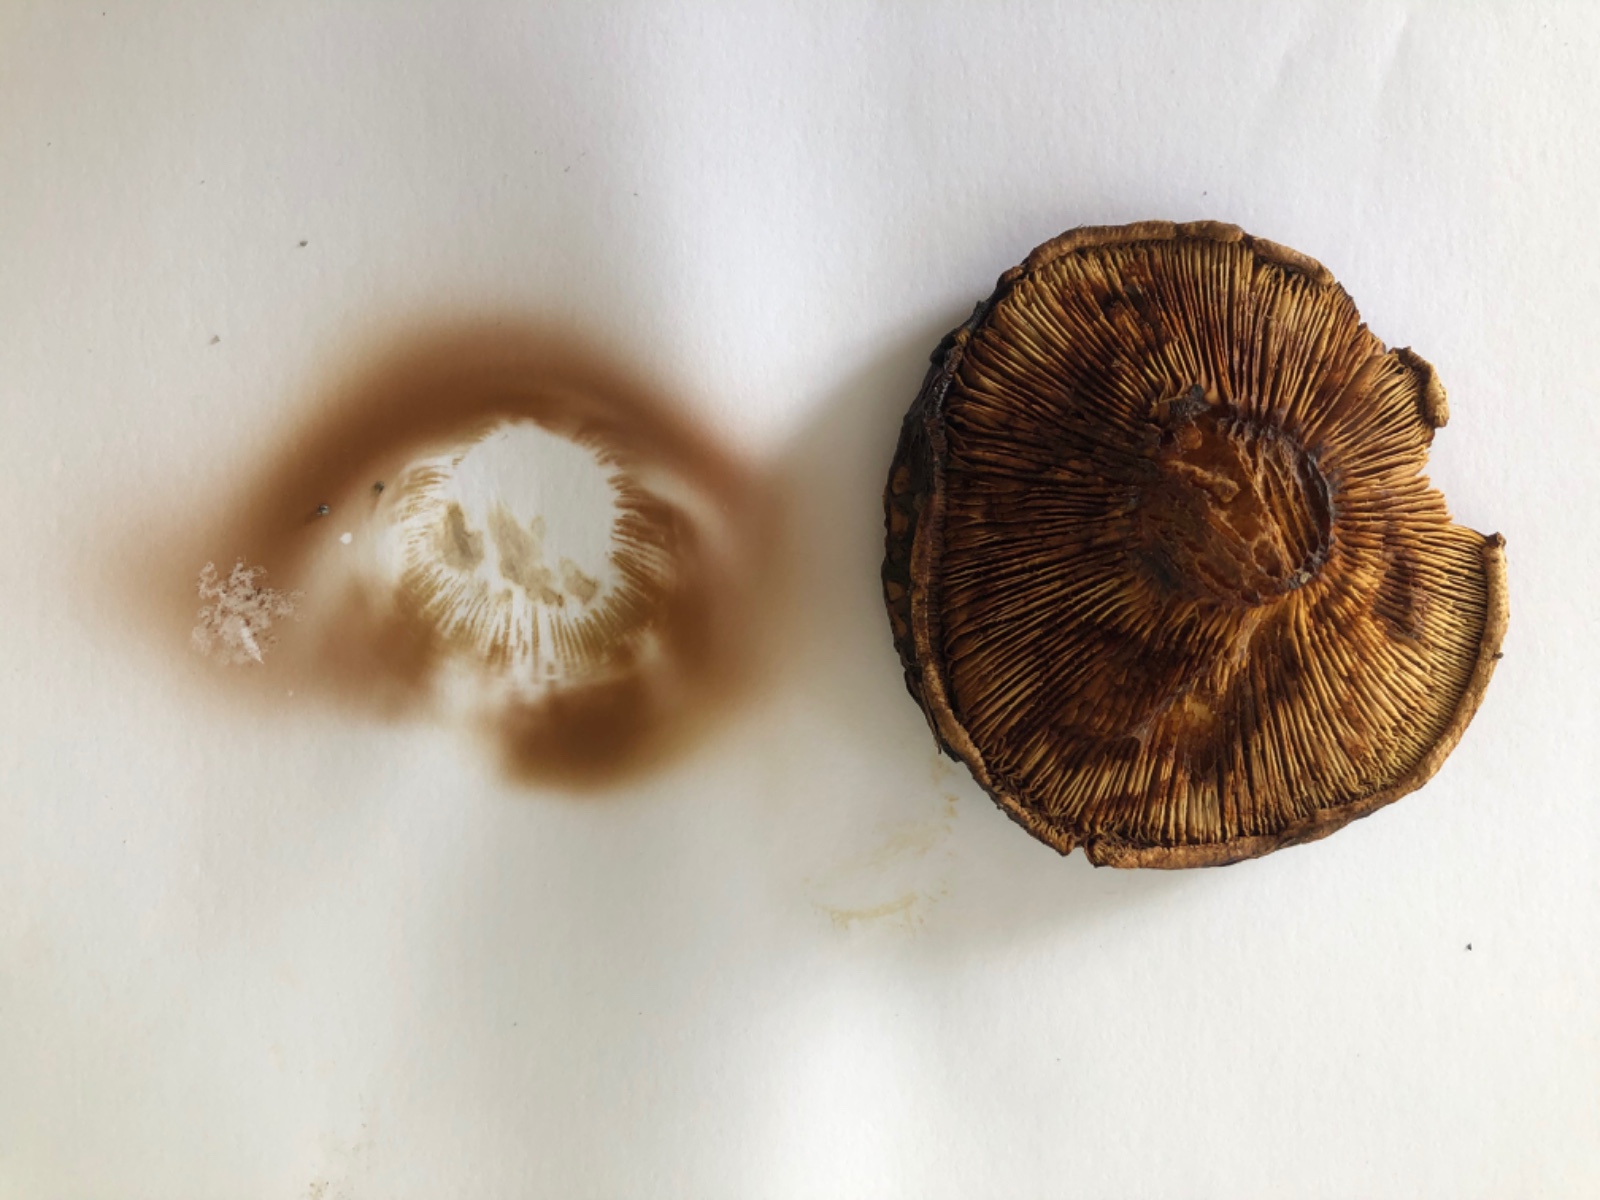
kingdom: Fungi
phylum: Basidiomycota
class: Agaricomycetes
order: Boletales
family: Paxillaceae
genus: Paxillus
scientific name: Paxillus obscurisporus
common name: mahognisporet netbladhat
